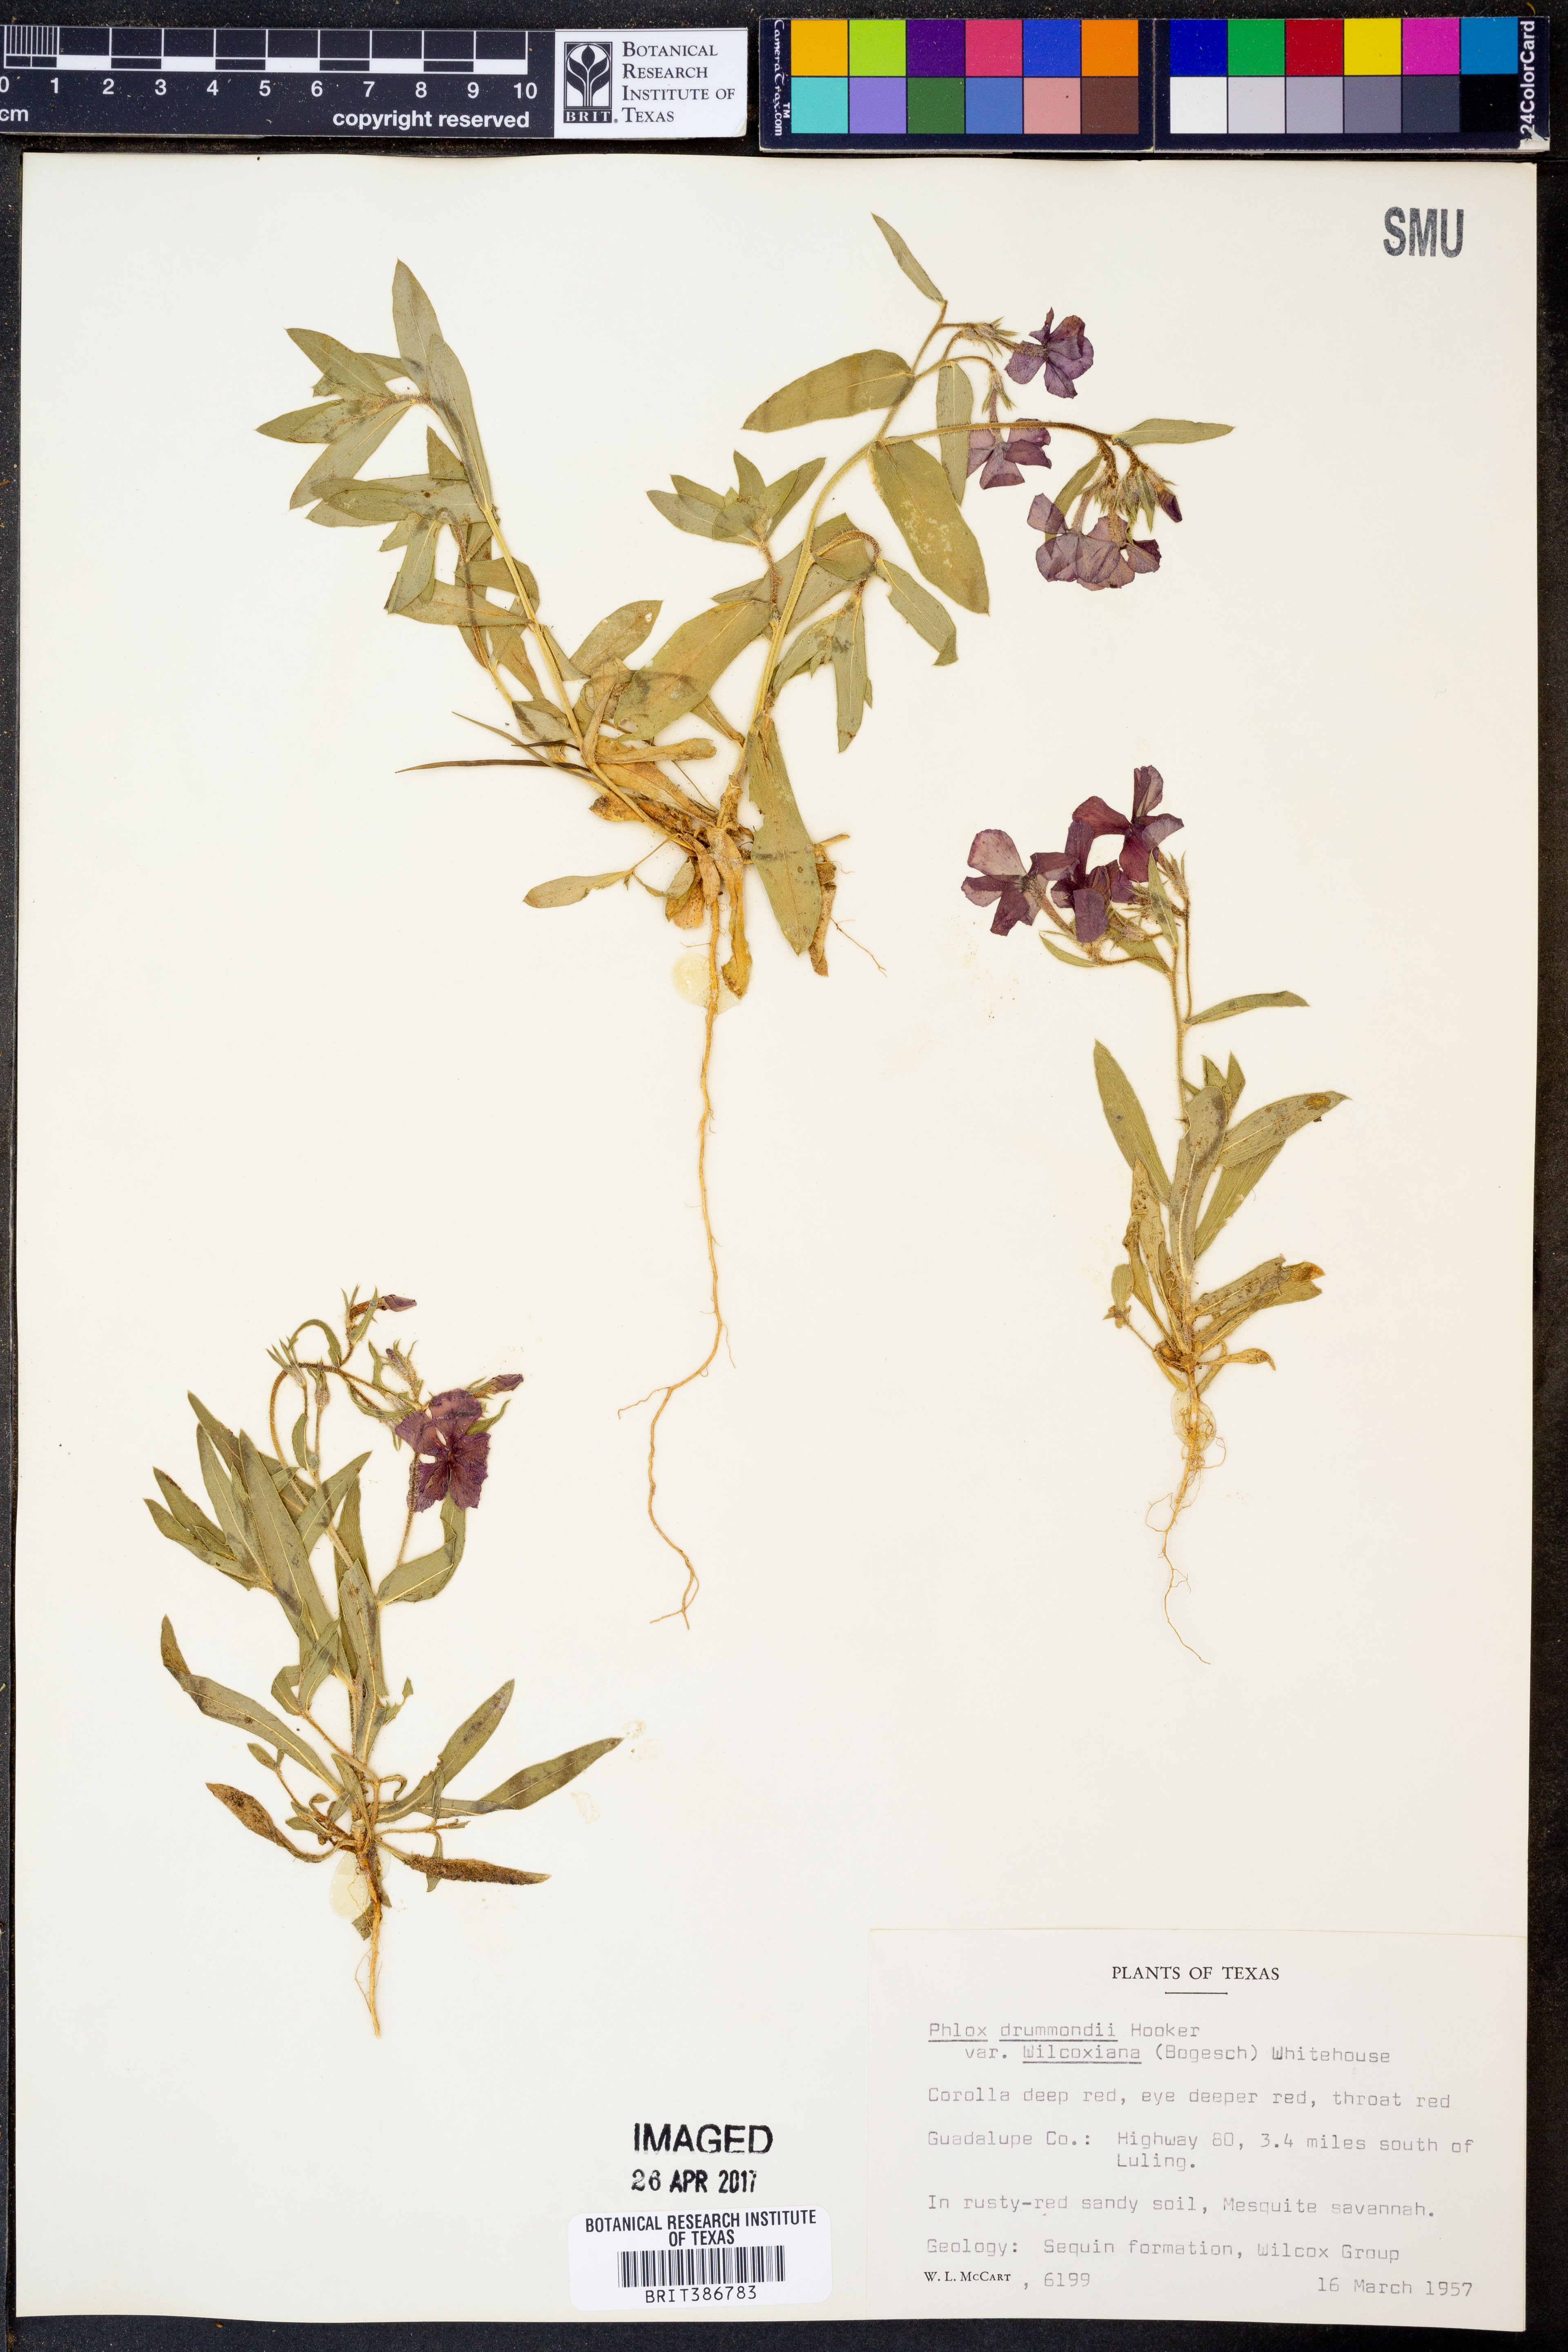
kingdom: Plantae
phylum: Tracheophyta
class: Magnoliopsida
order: Ericales
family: Polemoniaceae
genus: Phlox
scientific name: Phlox drummondii
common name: Drummond's phlox
